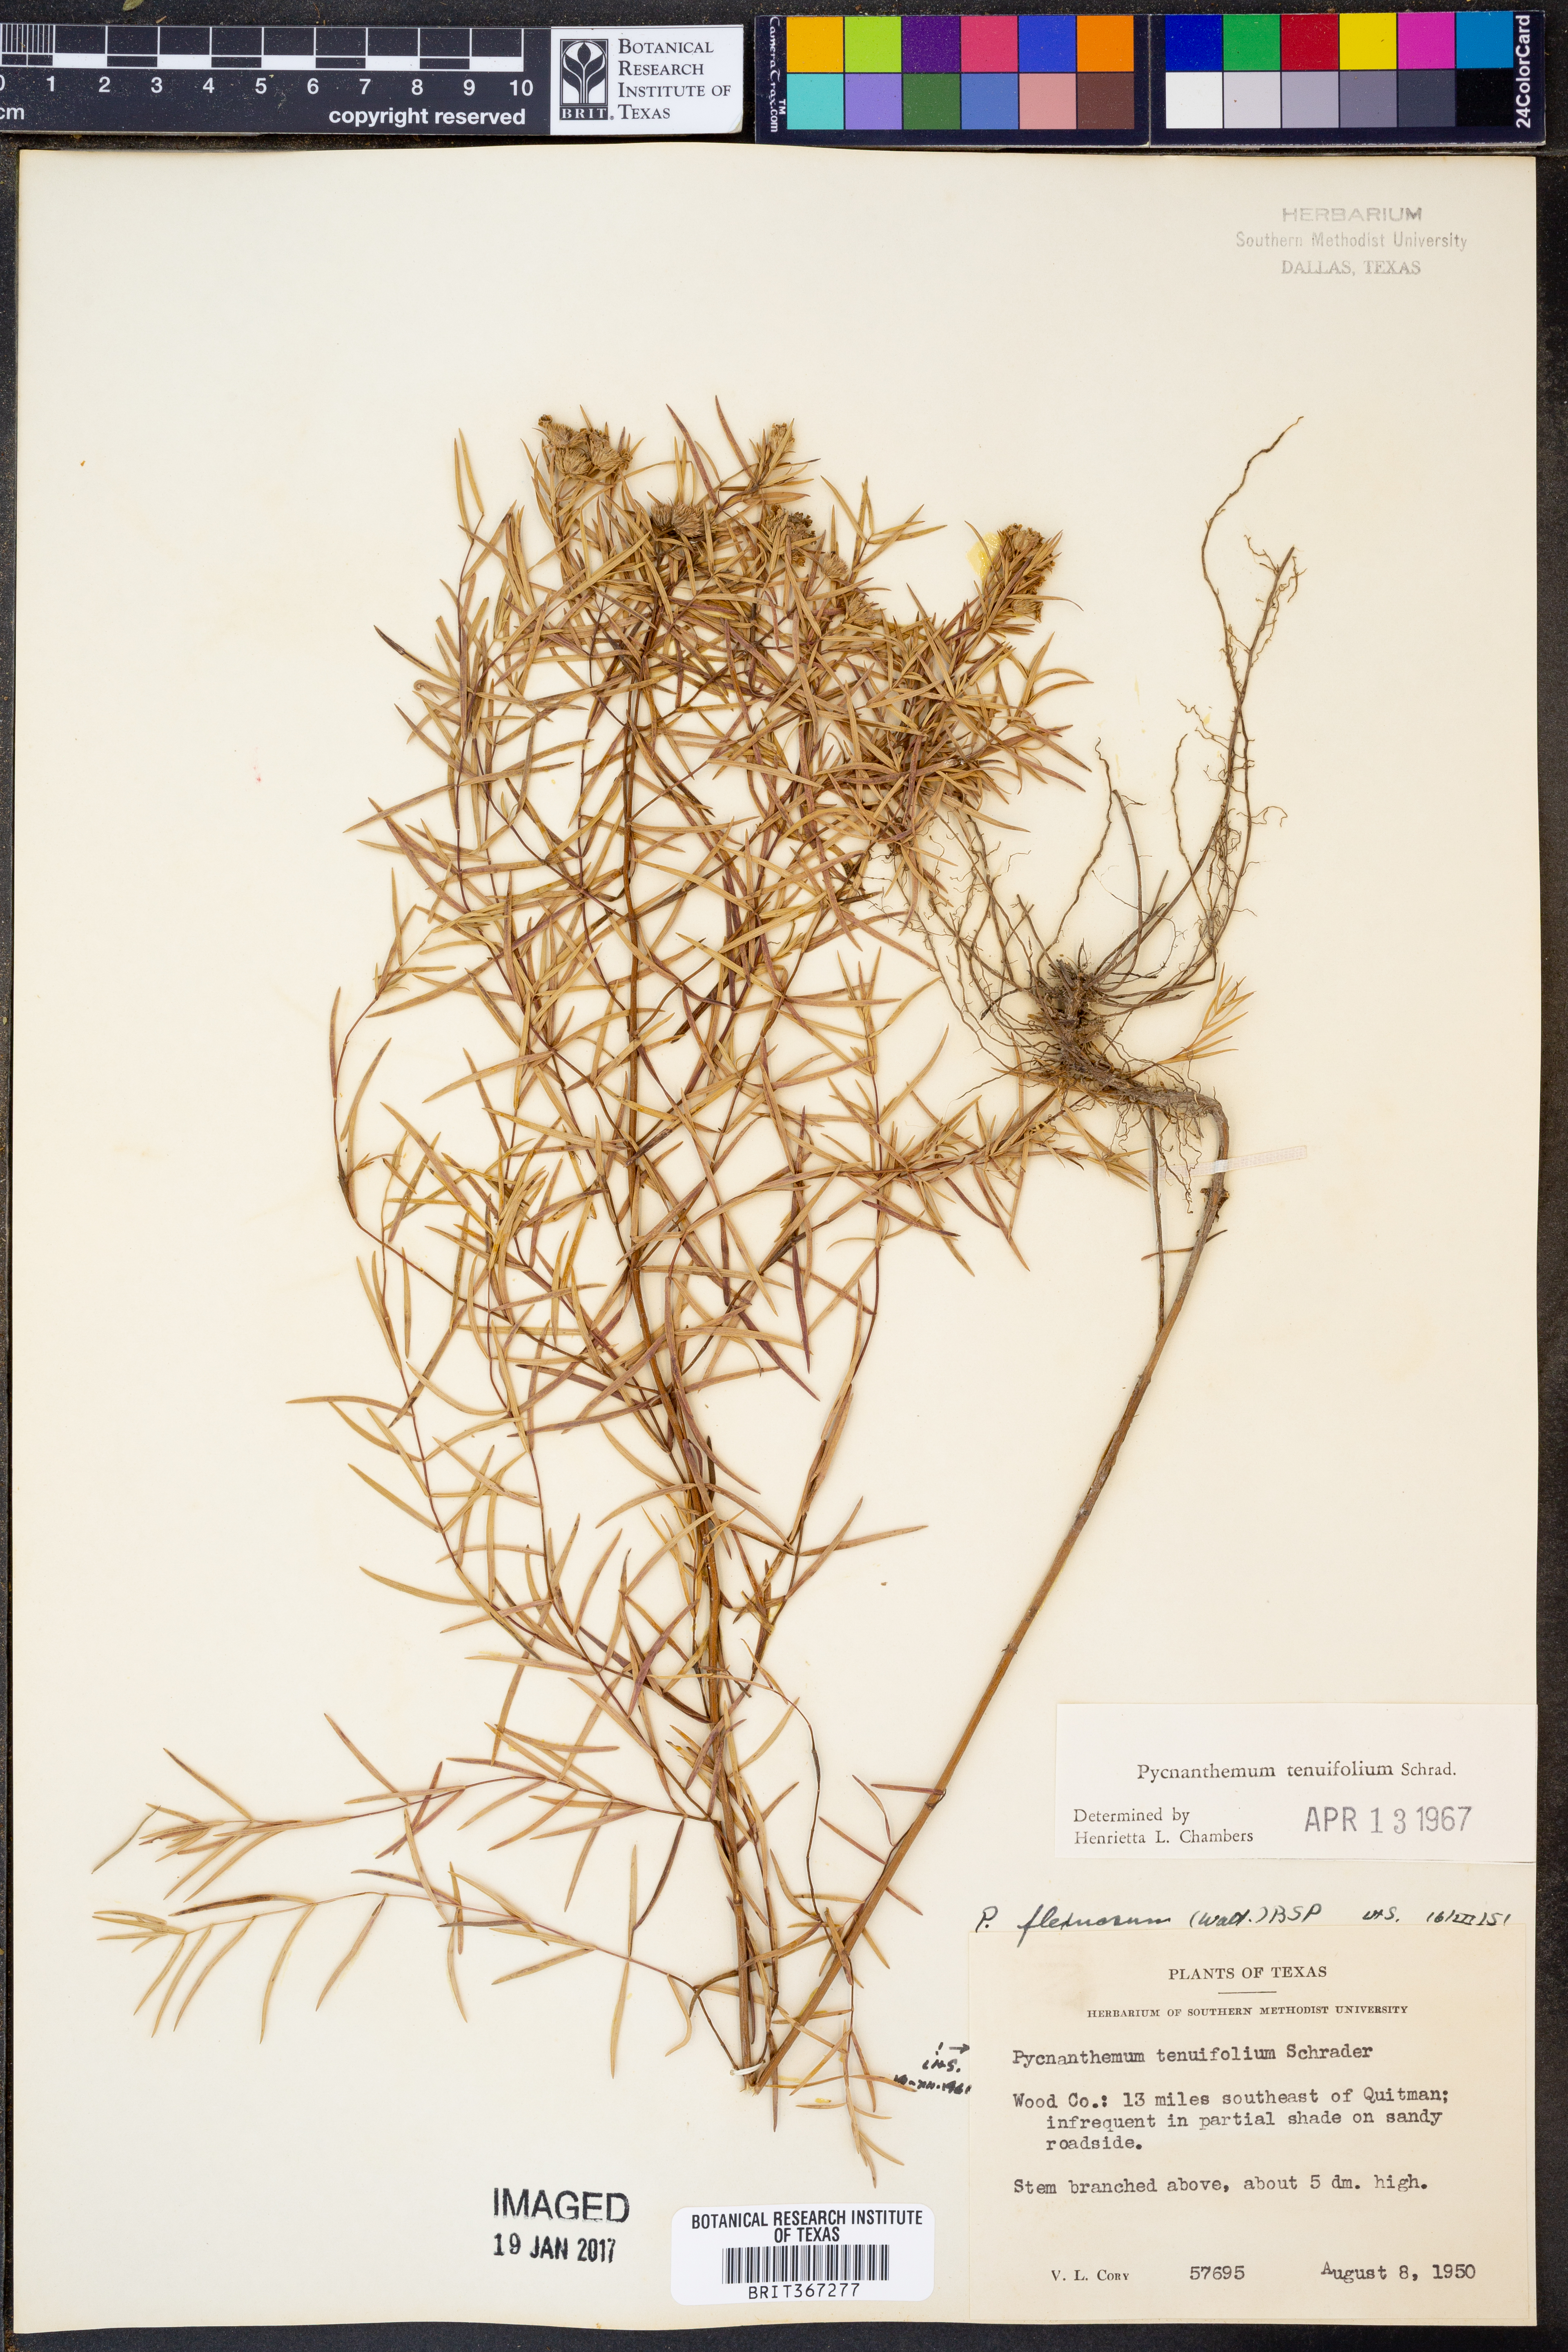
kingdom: Plantae
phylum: Tracheophyta
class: Magnoliopsida
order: Lamiales
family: Lamiaceae
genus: Pycnanthemum
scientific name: Pycnanthemum tenuifolium
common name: Narrow-leaf mountain-mint
